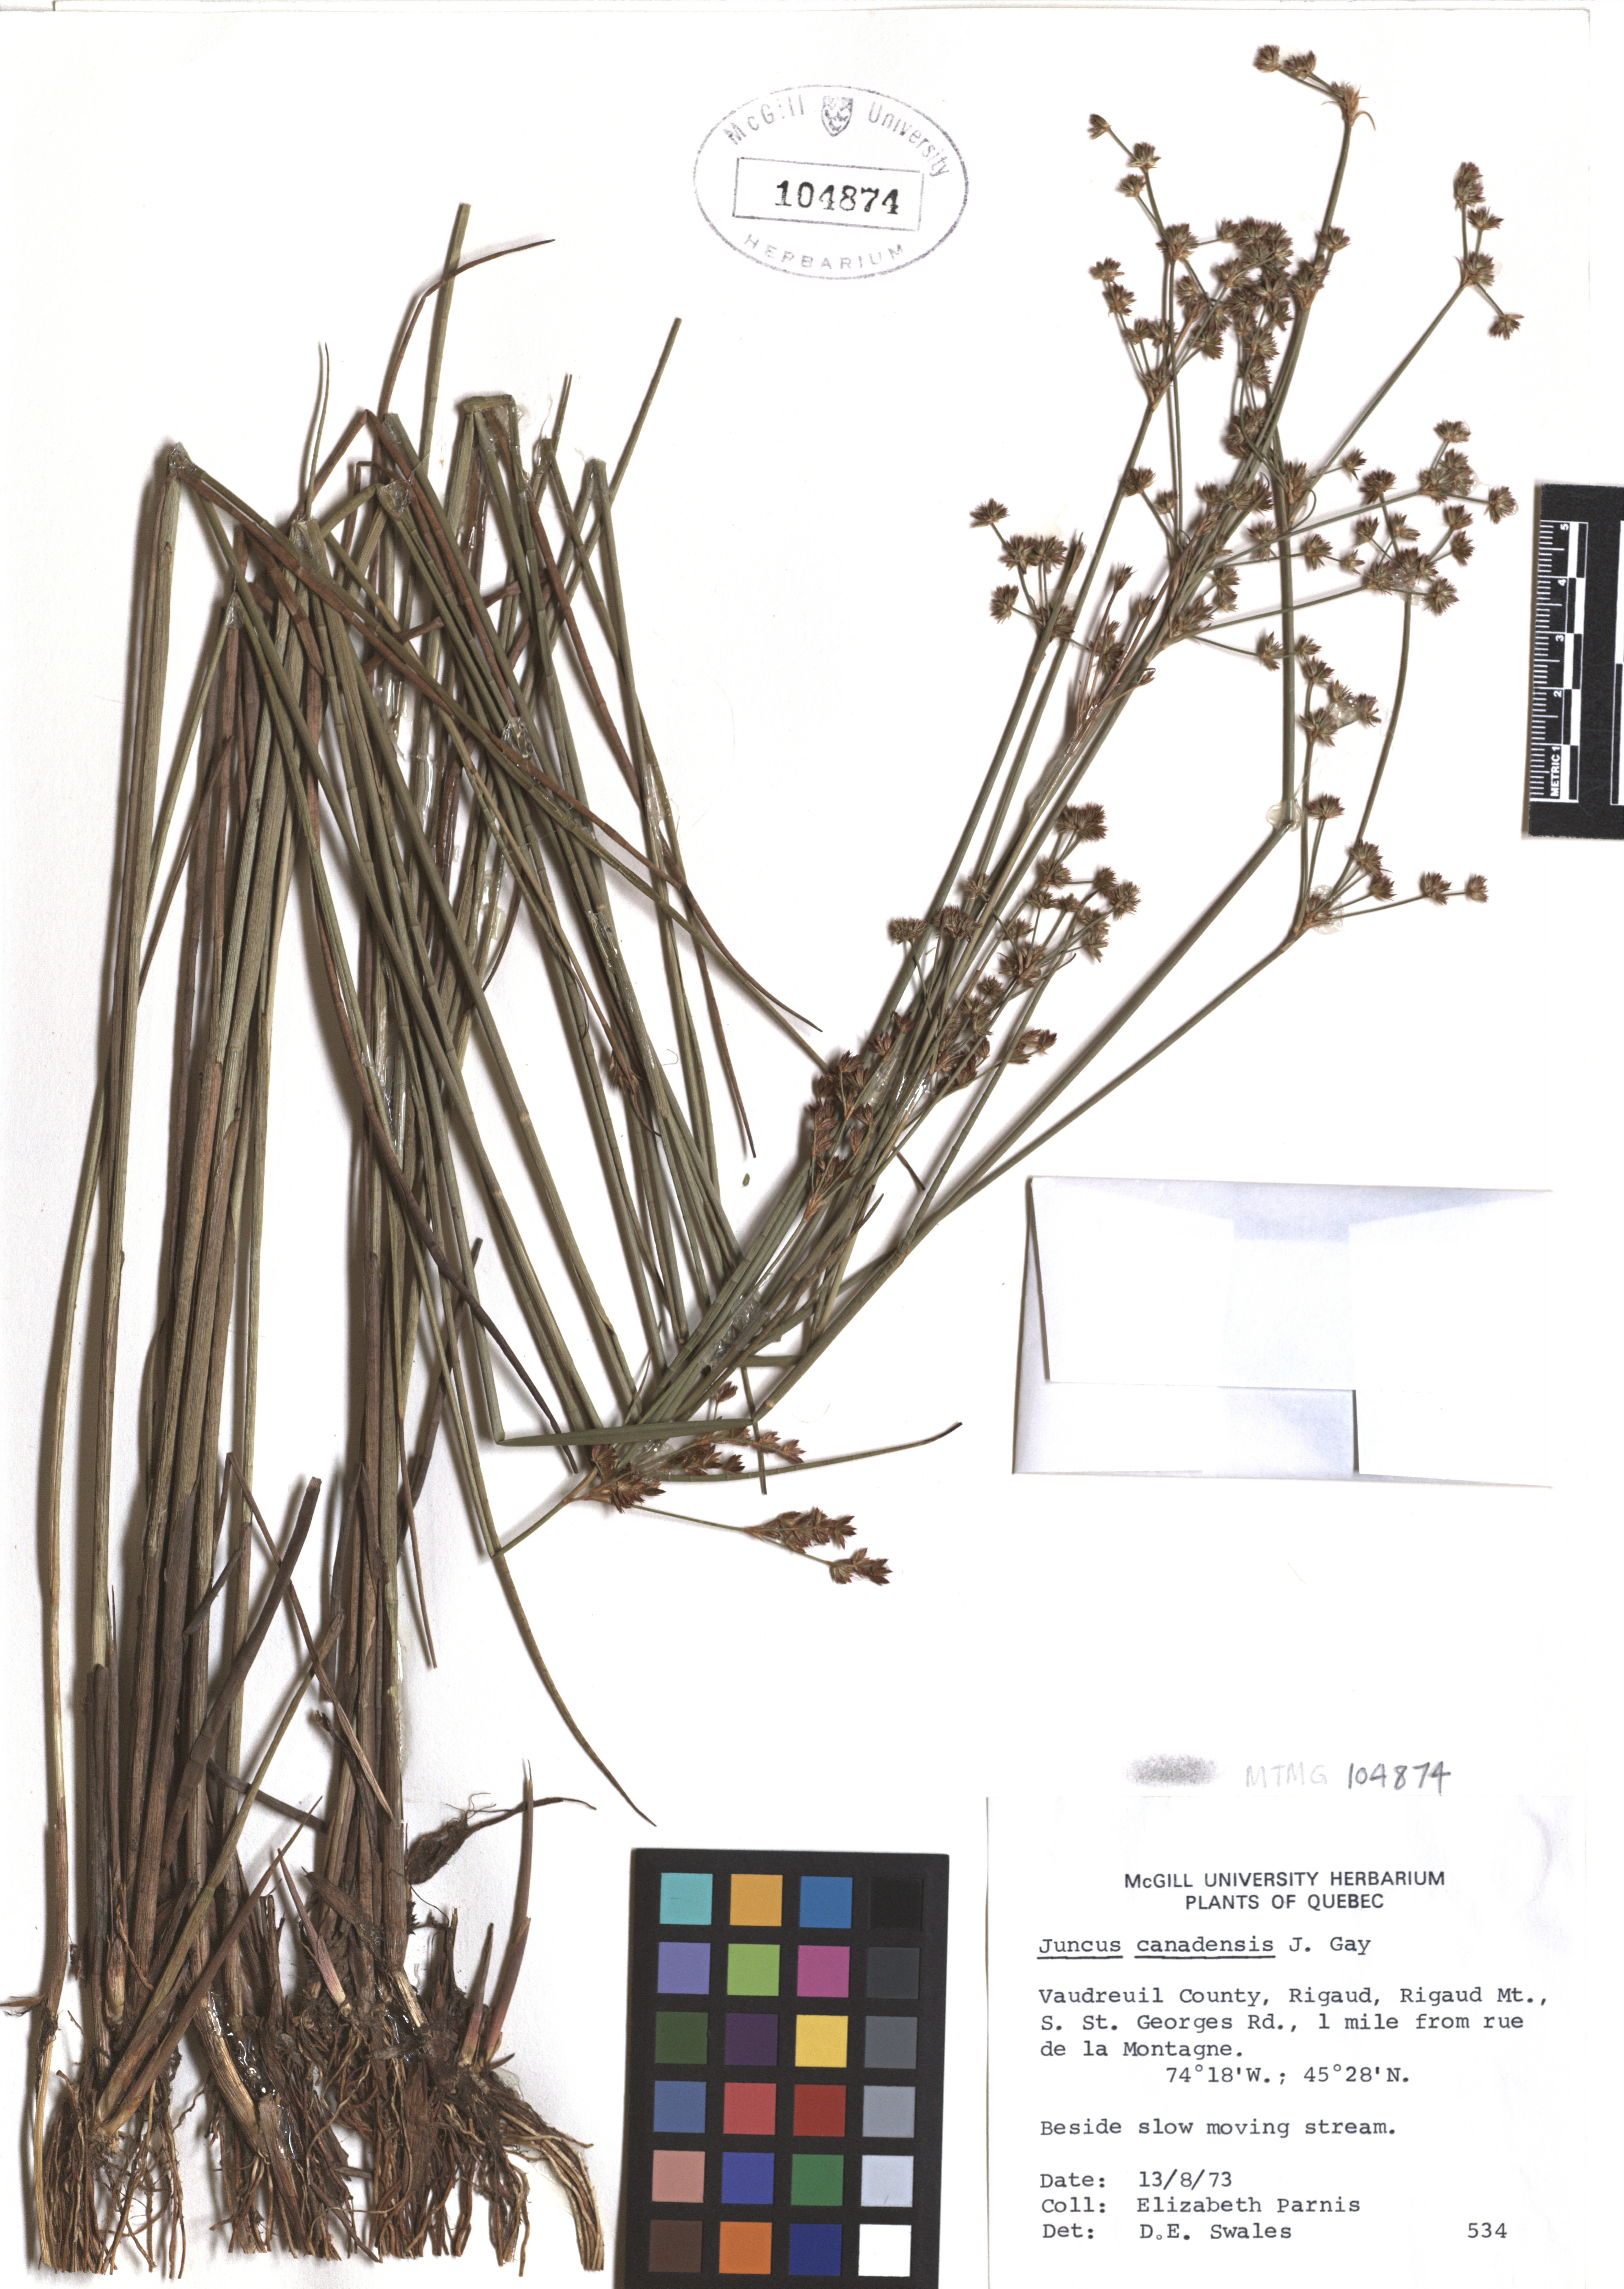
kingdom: Plantae
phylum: Tracheophyta
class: Liliopsida
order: Poales
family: Juncaceae
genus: Juncus
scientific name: Juncus canadensis
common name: Canada rush
